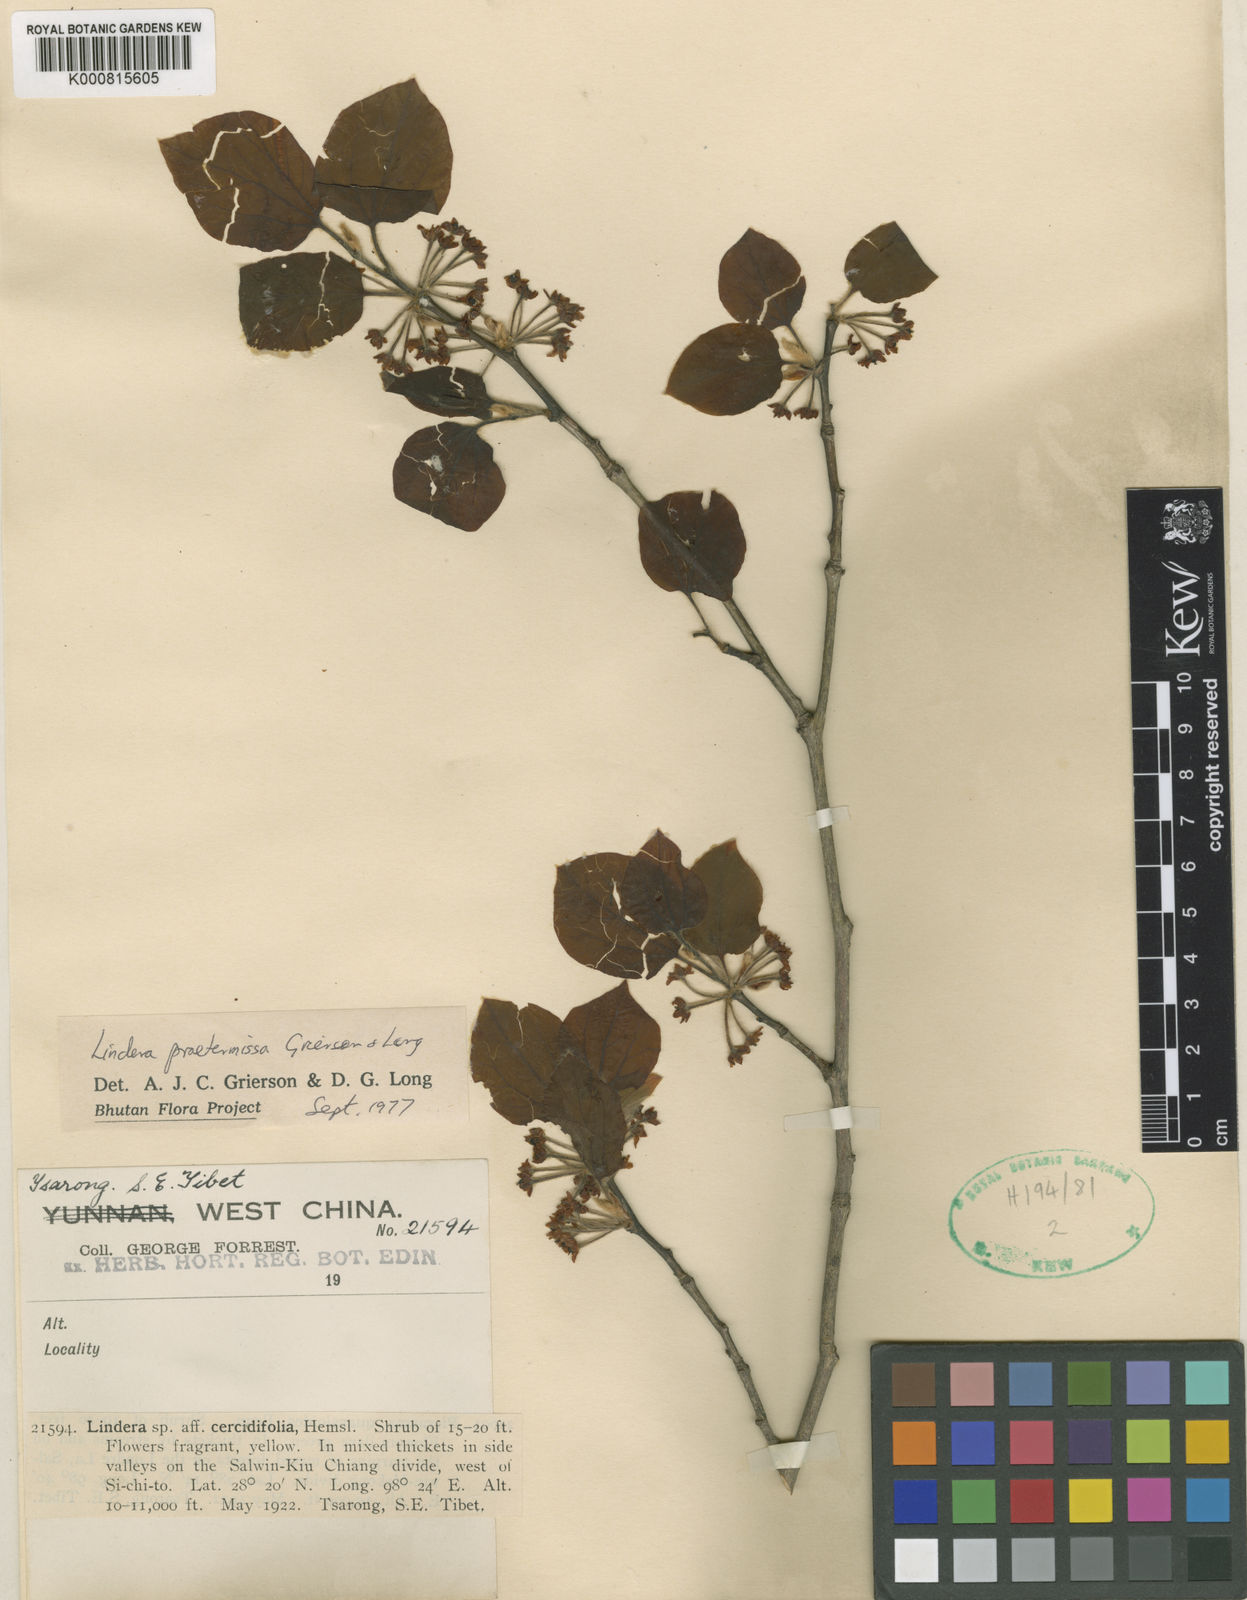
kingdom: Plantae
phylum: Tracheophyta
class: Magnoliopsida
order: Laurales
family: Lauraceae
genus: Lindera
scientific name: Lindera obtusiloba
